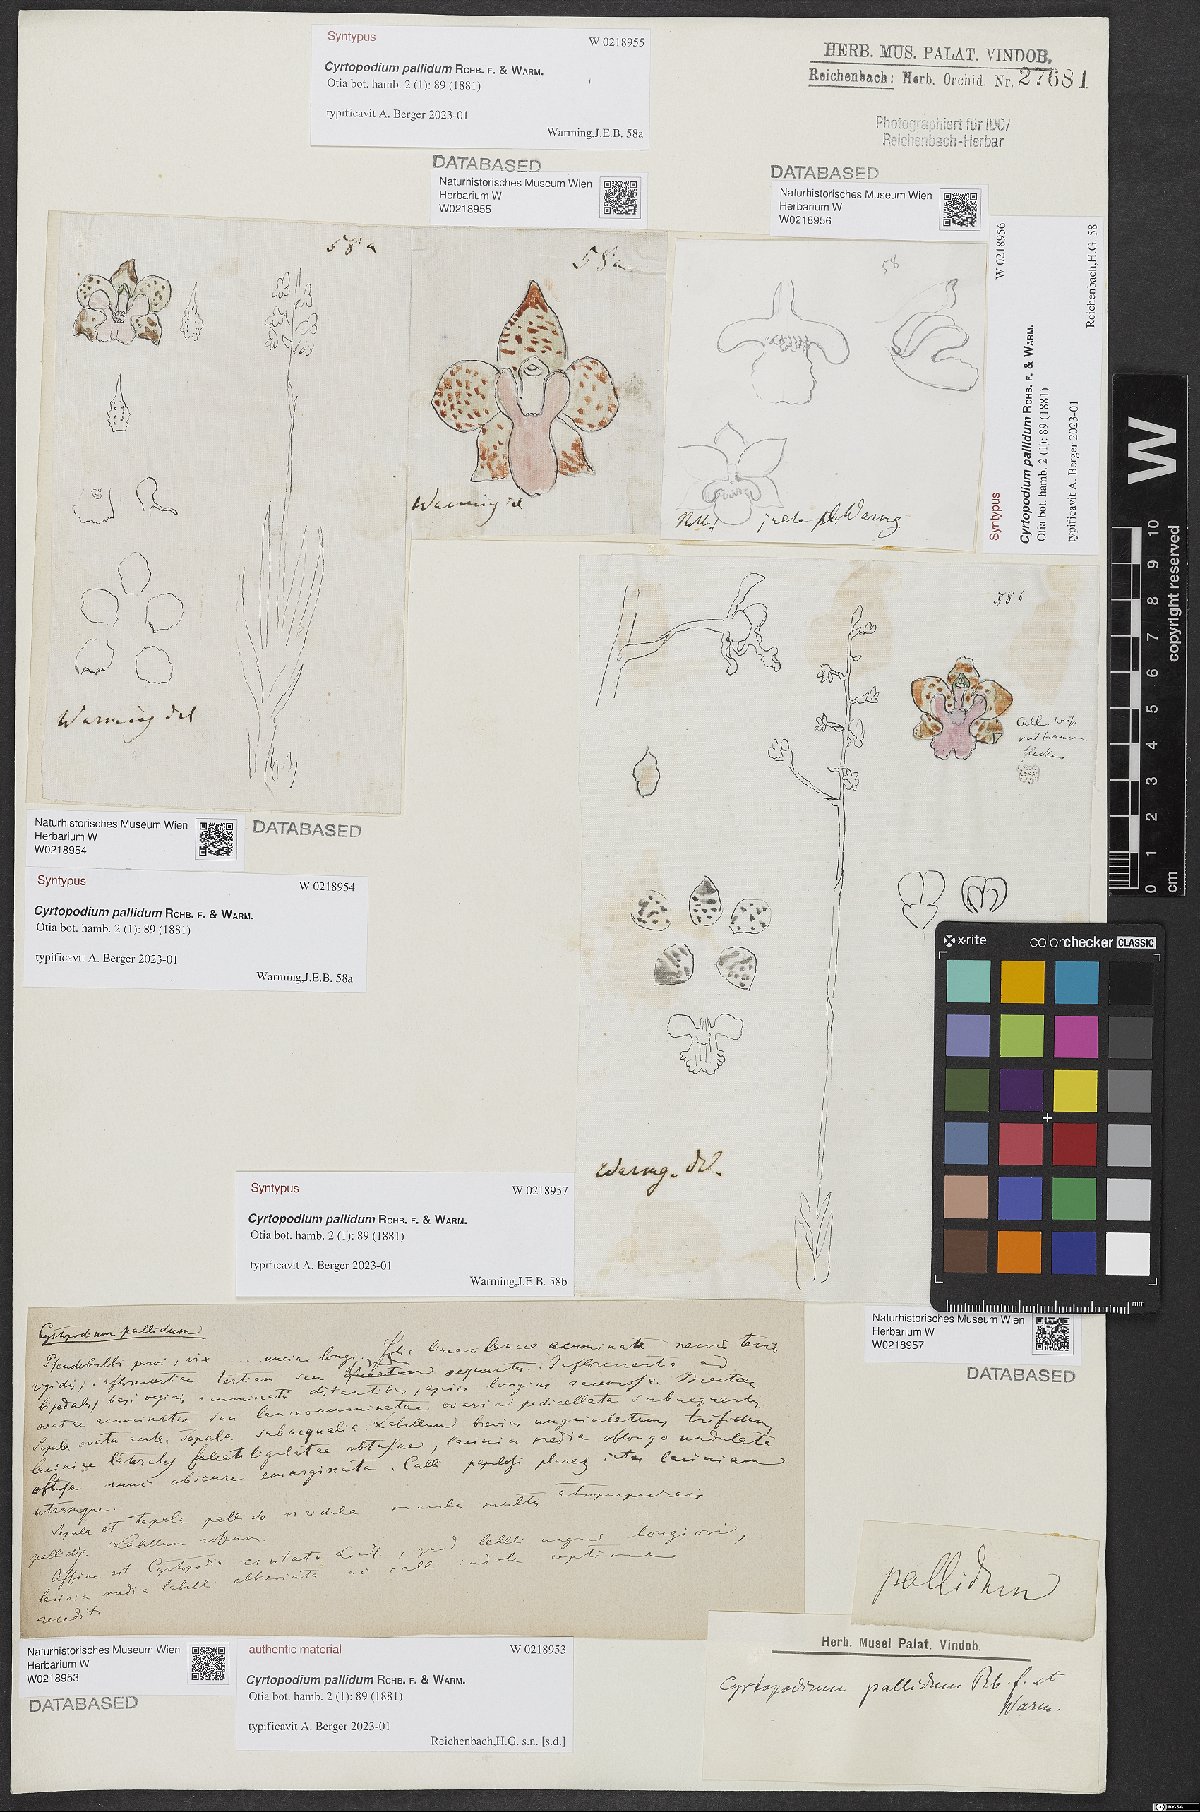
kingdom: Plantae
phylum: Tracheophyta
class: Liliopsida
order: Asparagales
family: Orchidaceae
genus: Cyrtopodium
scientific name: Cyrtopodium pallidum
